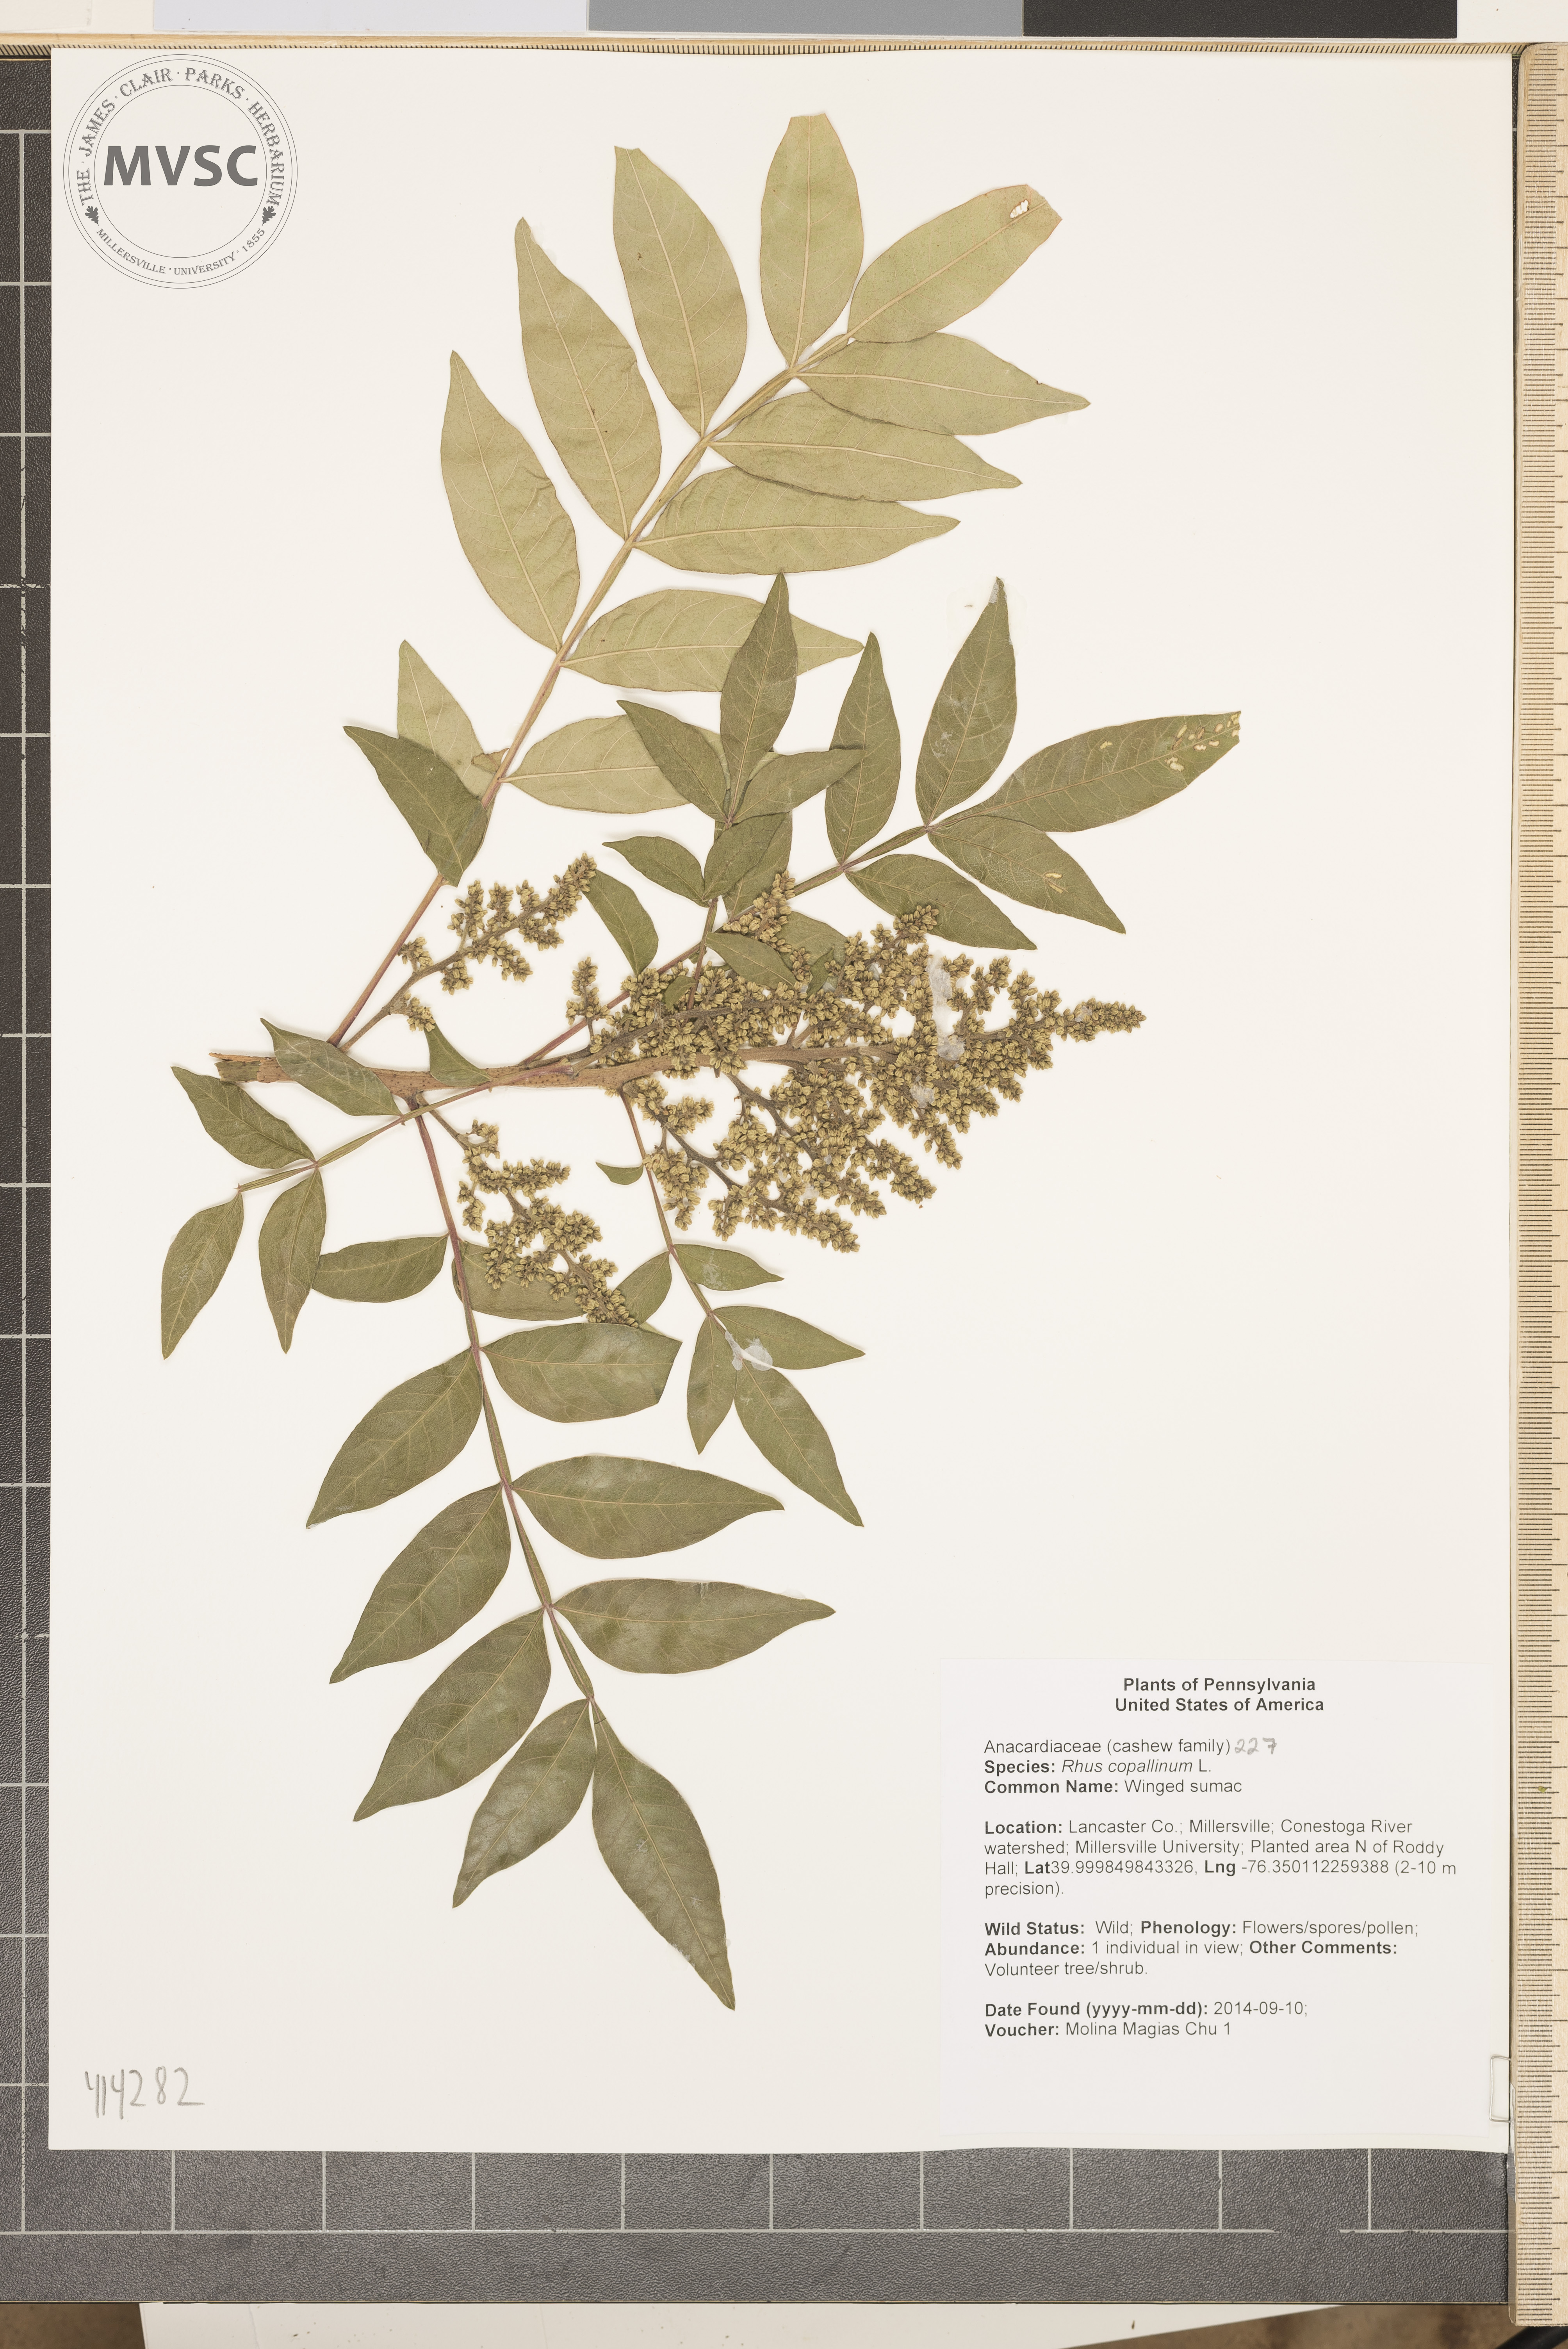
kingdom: Plantae
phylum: Tracheophyta
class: Magnoliopsida
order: Sapindales
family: Anacardiaceae
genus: Rhus
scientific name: Rhus copallina
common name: Winged sumac
